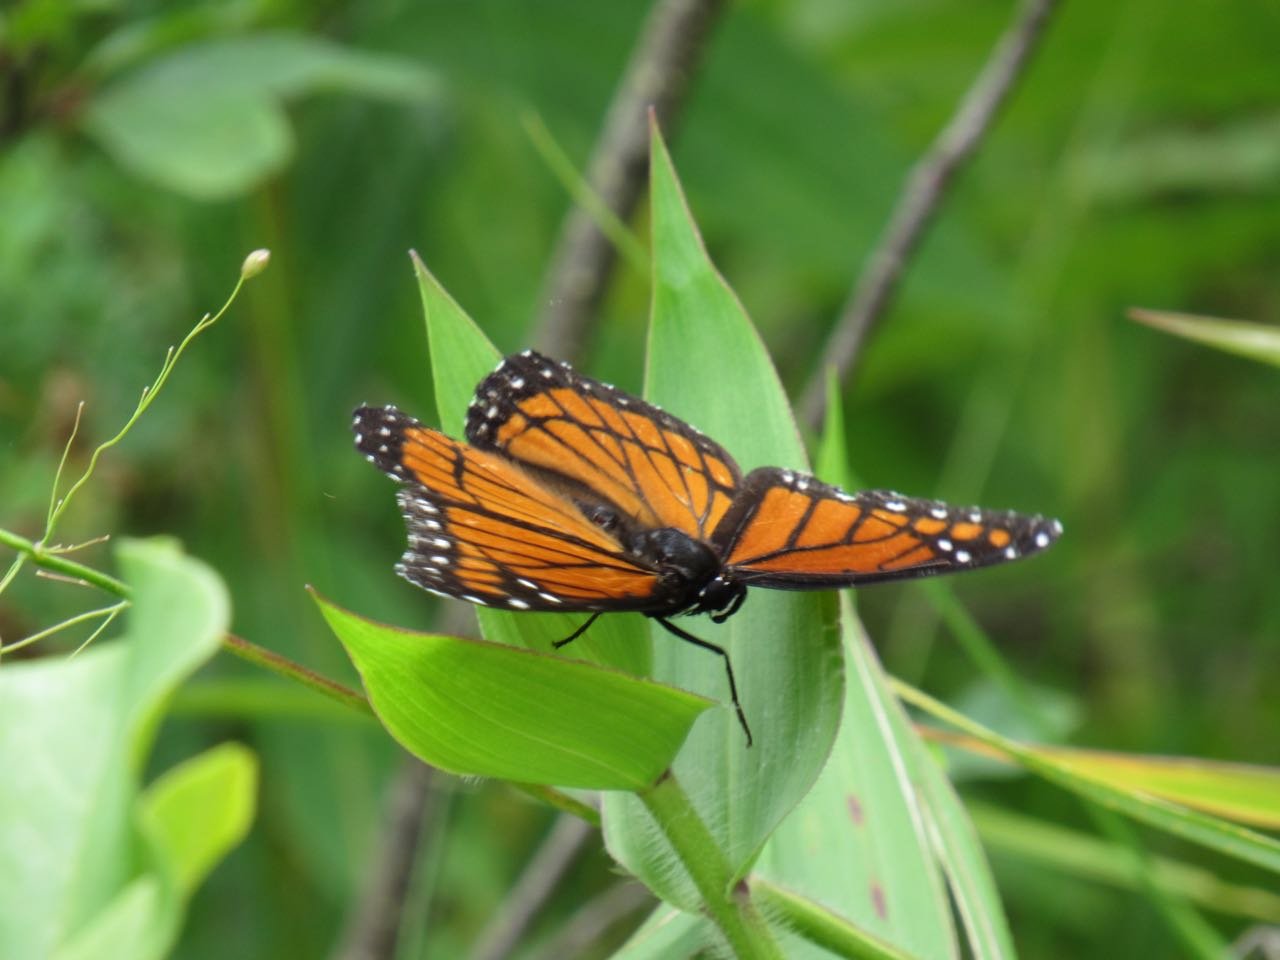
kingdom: Animalia
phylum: Arthropoda
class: Insecta
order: Lepidoptera
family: Nymphalidae
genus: Limenitis
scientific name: Limenitis archippus
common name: Viceroy
